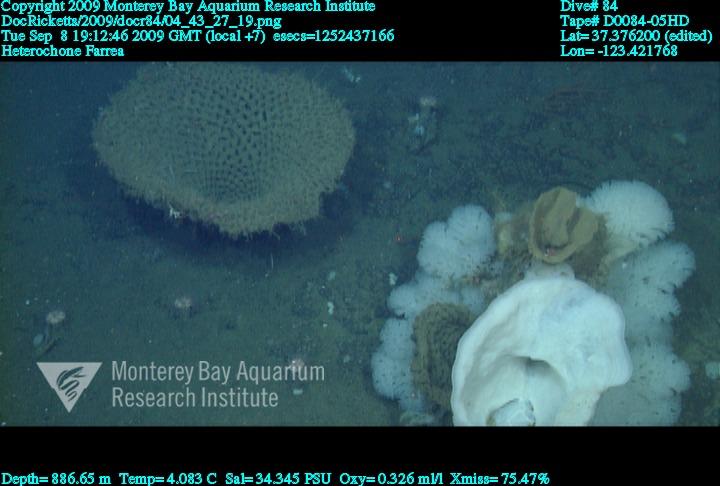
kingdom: Animalia
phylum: Porifera
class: Hexactinellida
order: Sceptrulophora
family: Farreidae
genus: Farrea
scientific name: Farrea
